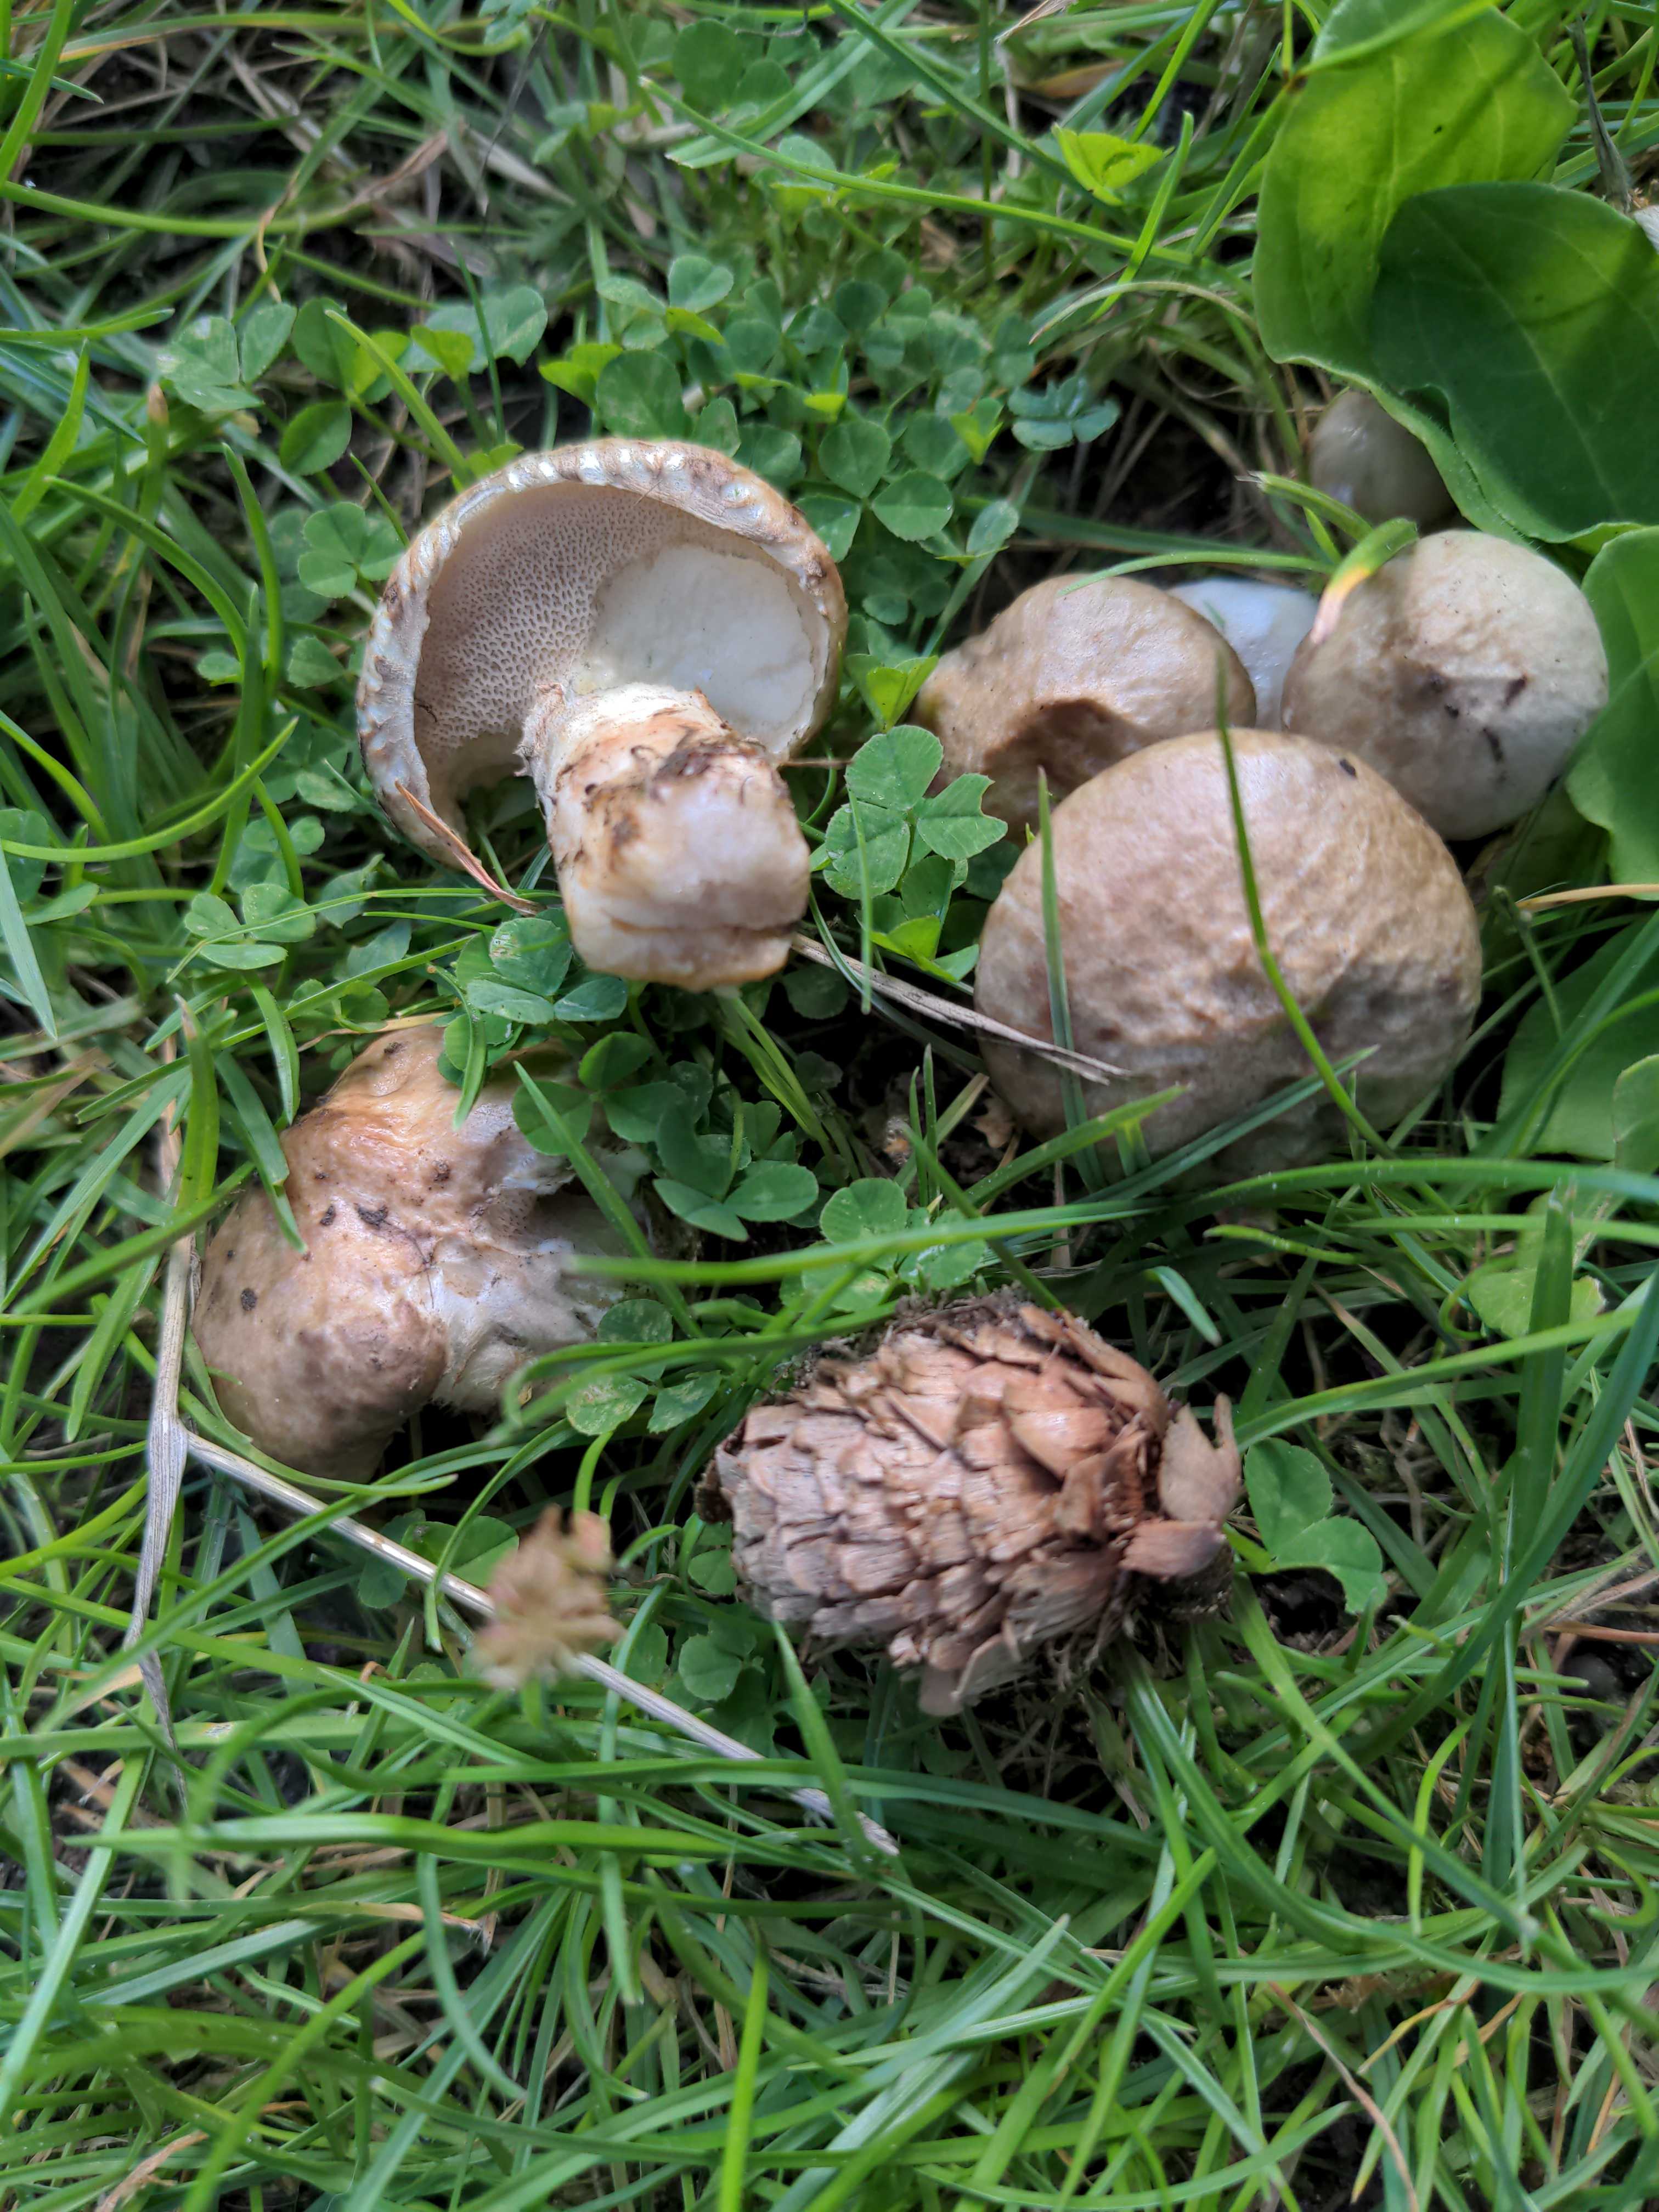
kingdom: Fungi
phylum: Basidiomycota
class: Agaricomycetes
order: Boletales
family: Suillaceae
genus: Suillus
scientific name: Suillus viscidus
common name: olivengrå slimrørhat
